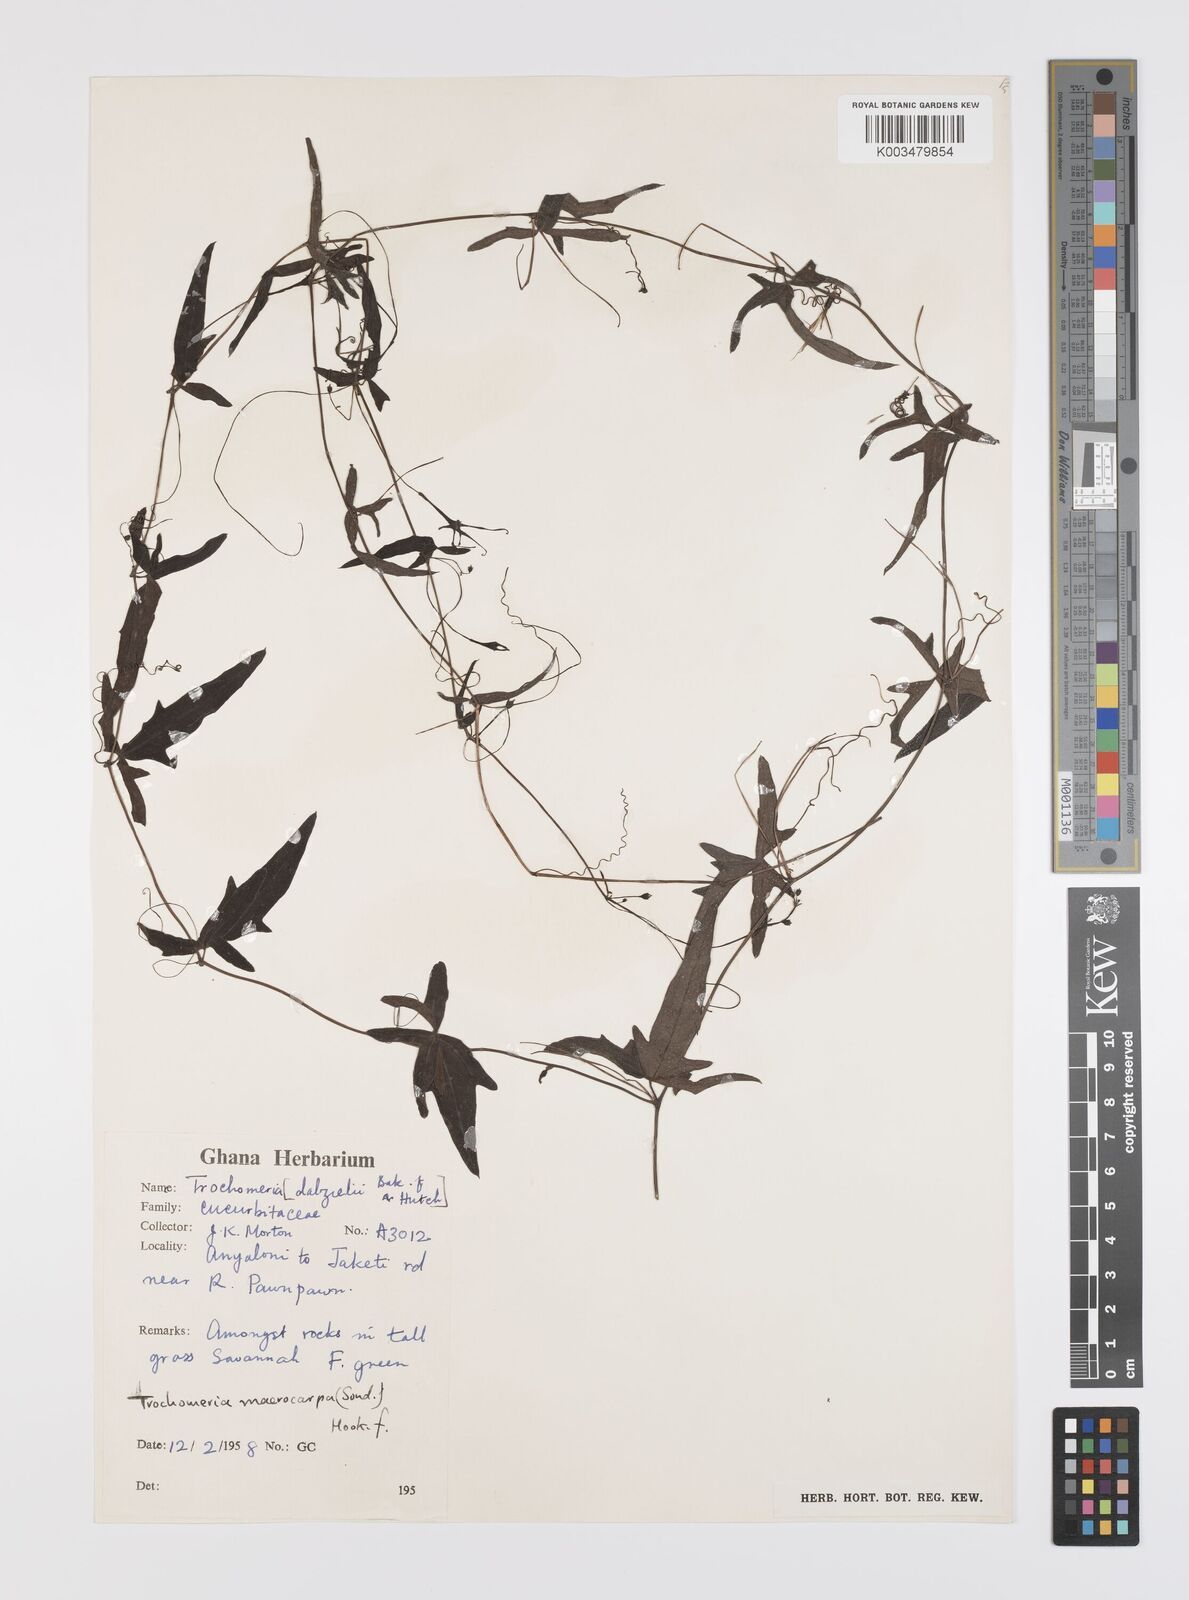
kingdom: Plantae
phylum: Tracheophyta
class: Magnoliopsida
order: Cucurbitales
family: Cucurbitaceae
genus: Trochomeria
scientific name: Trochomeria macrocarpa
